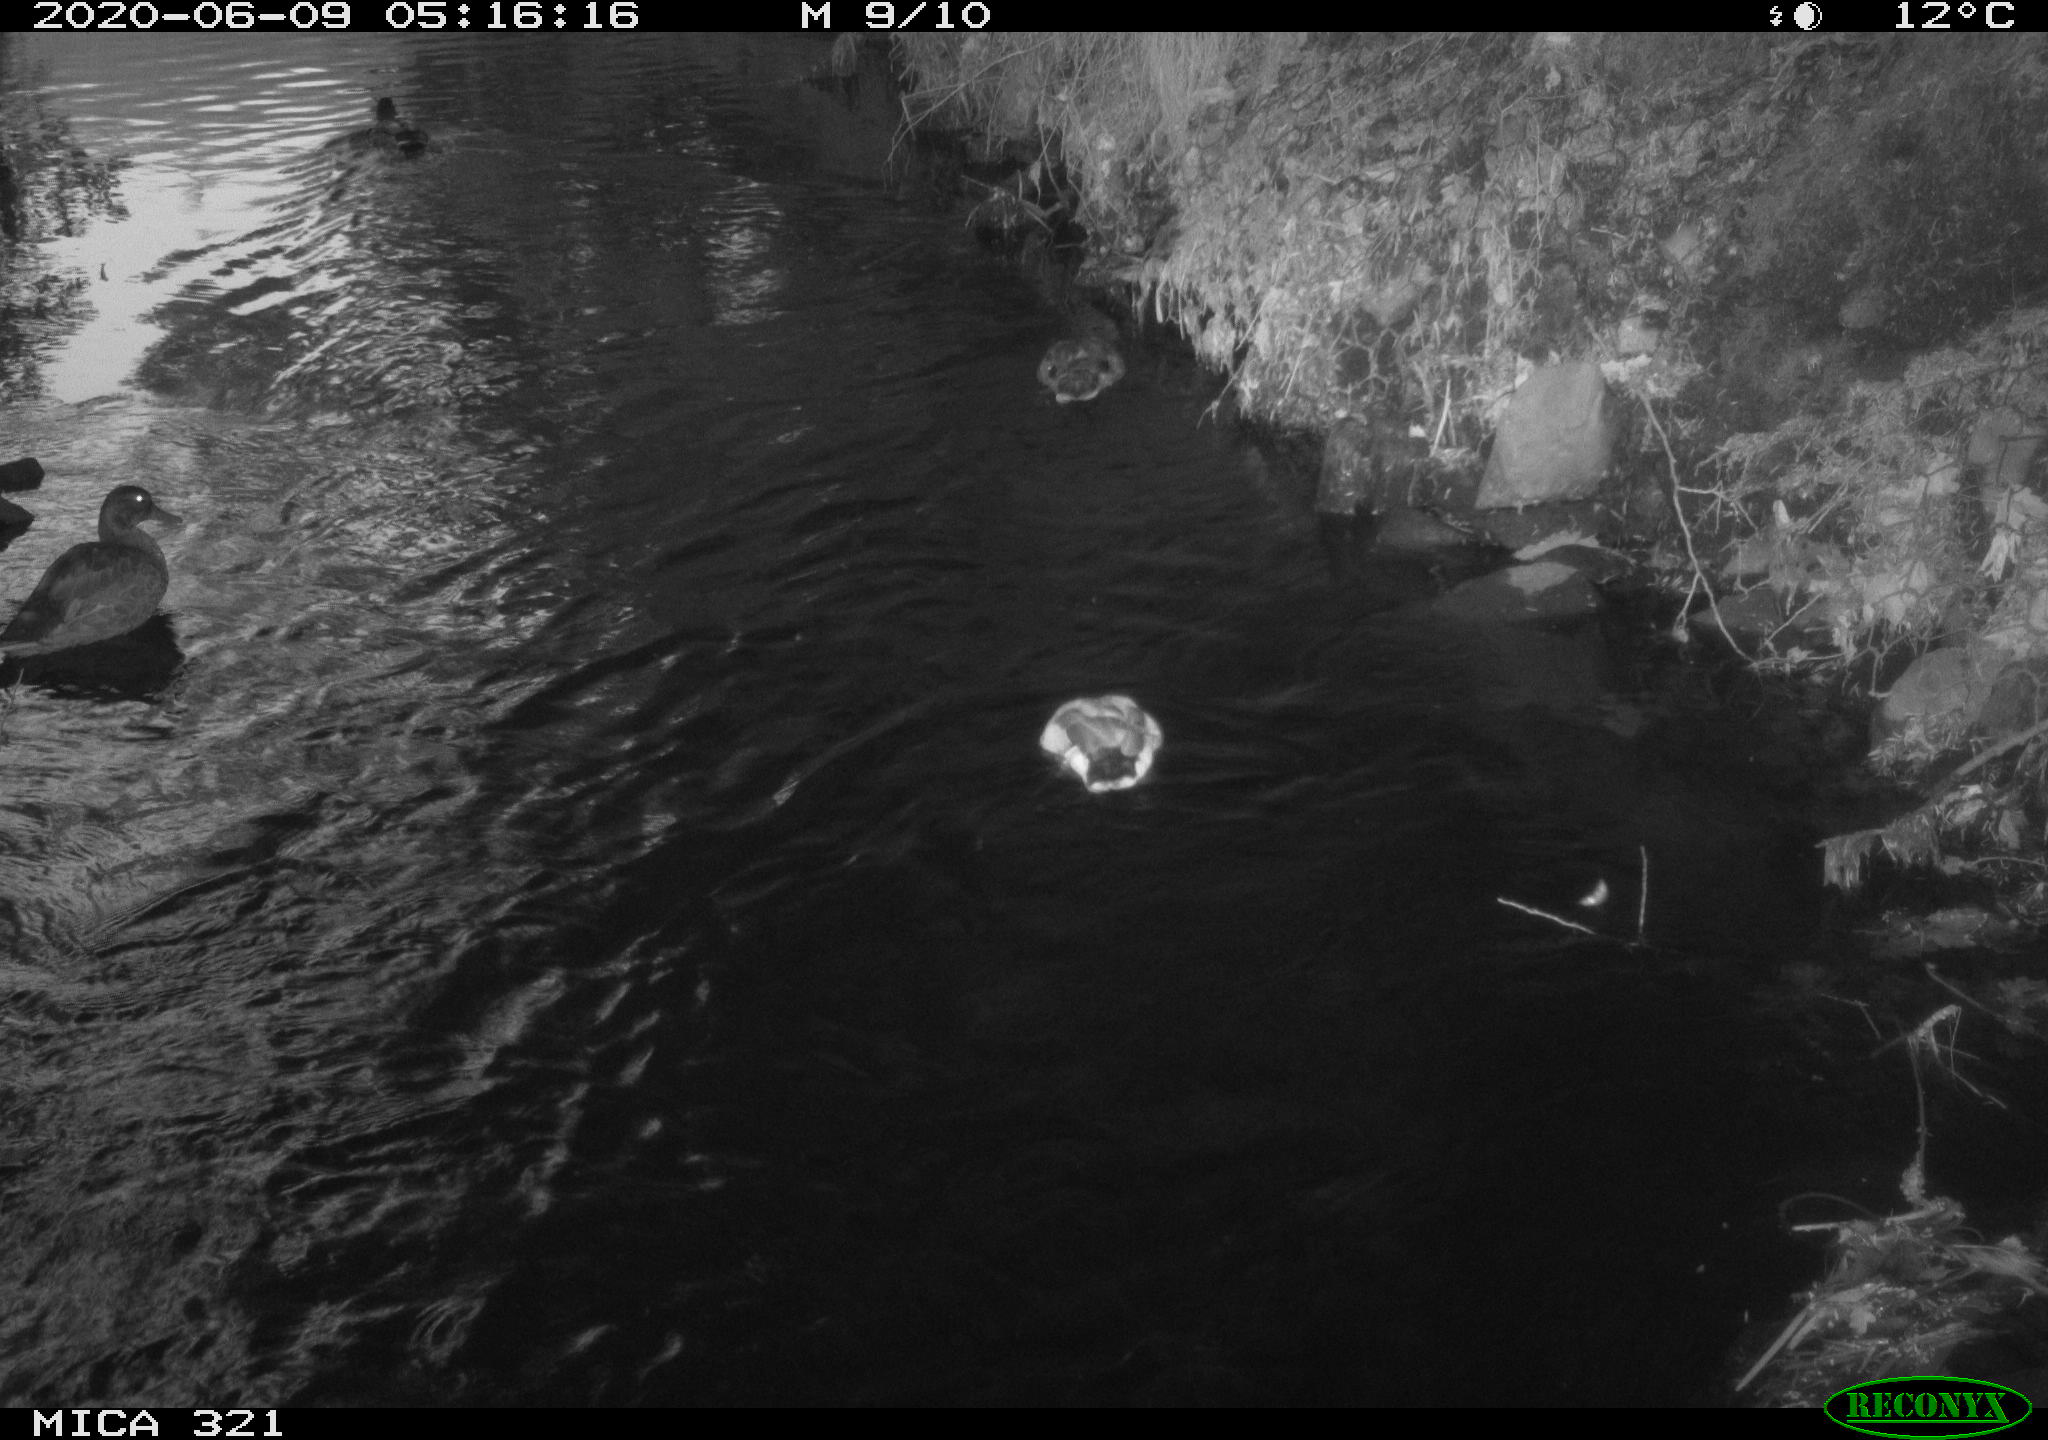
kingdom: Animalia
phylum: Chordata
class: Aves
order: Anseriformes
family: Anatidae
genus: Anas
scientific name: Anas platyrhynchos
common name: Mallard
